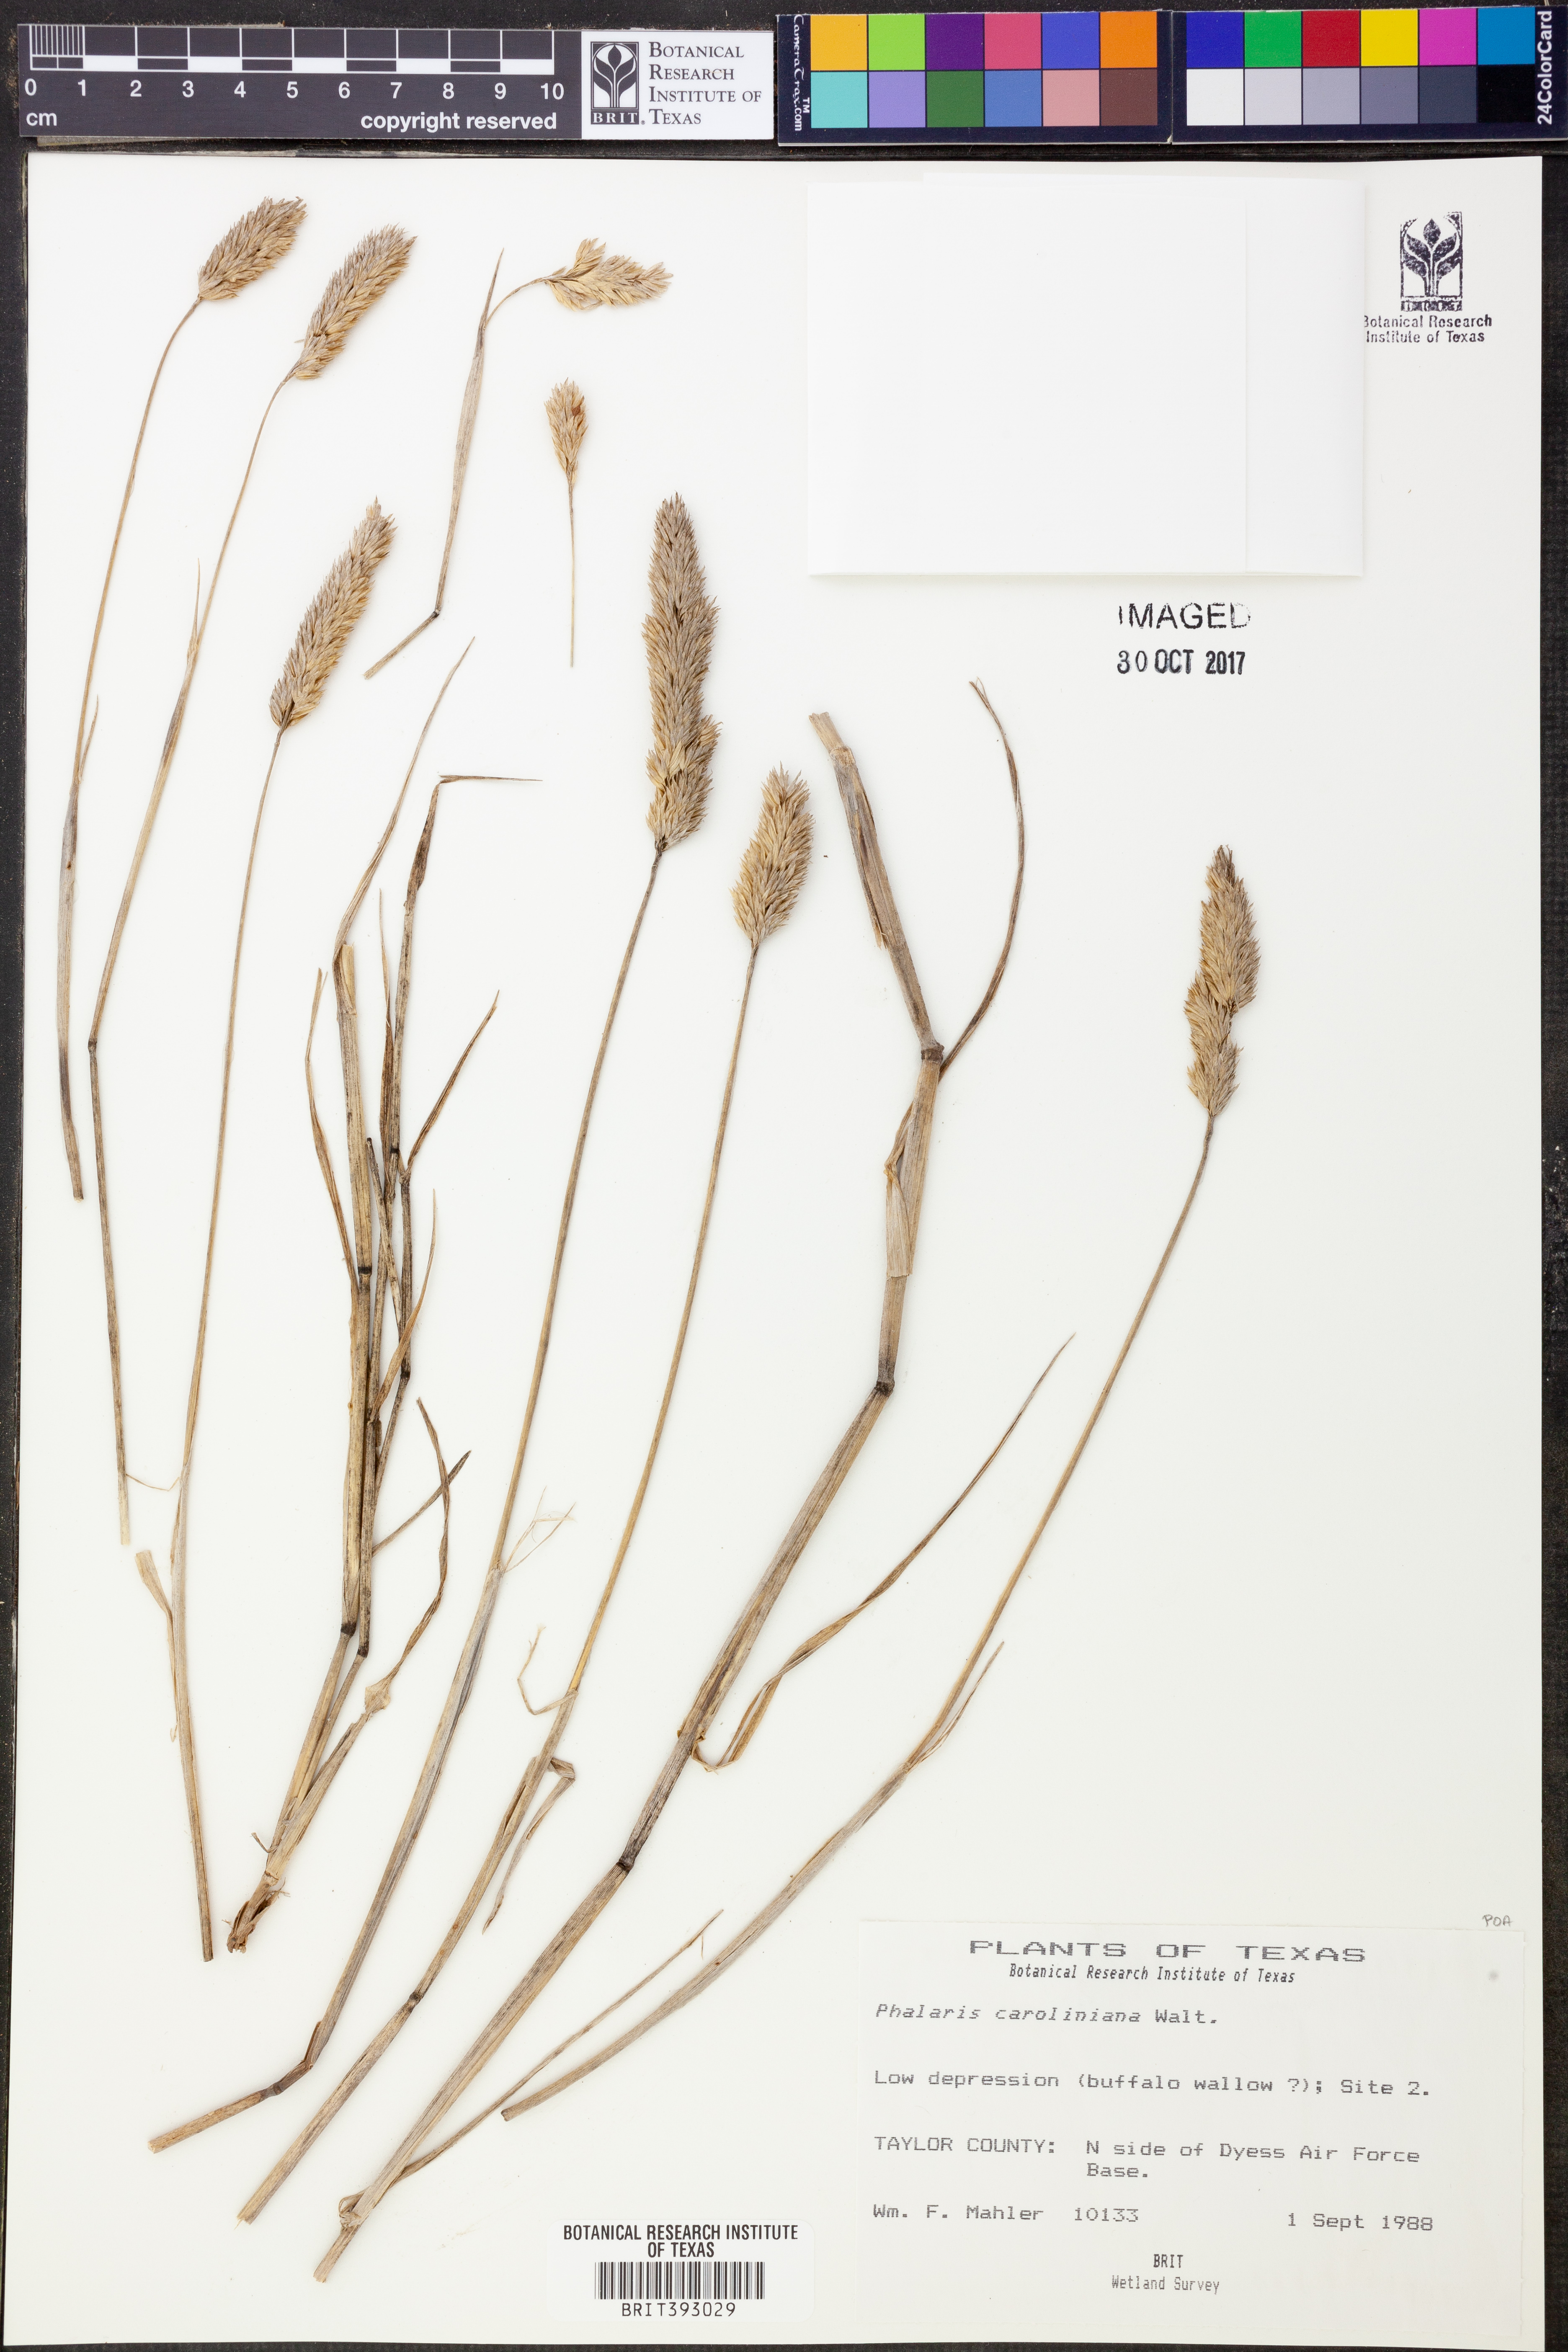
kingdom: Plantae
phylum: Tracheophyta
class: Liliopsida
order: Poales
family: Poaceae
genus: Phalaris
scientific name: Phalaris caroliniana
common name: May grass
